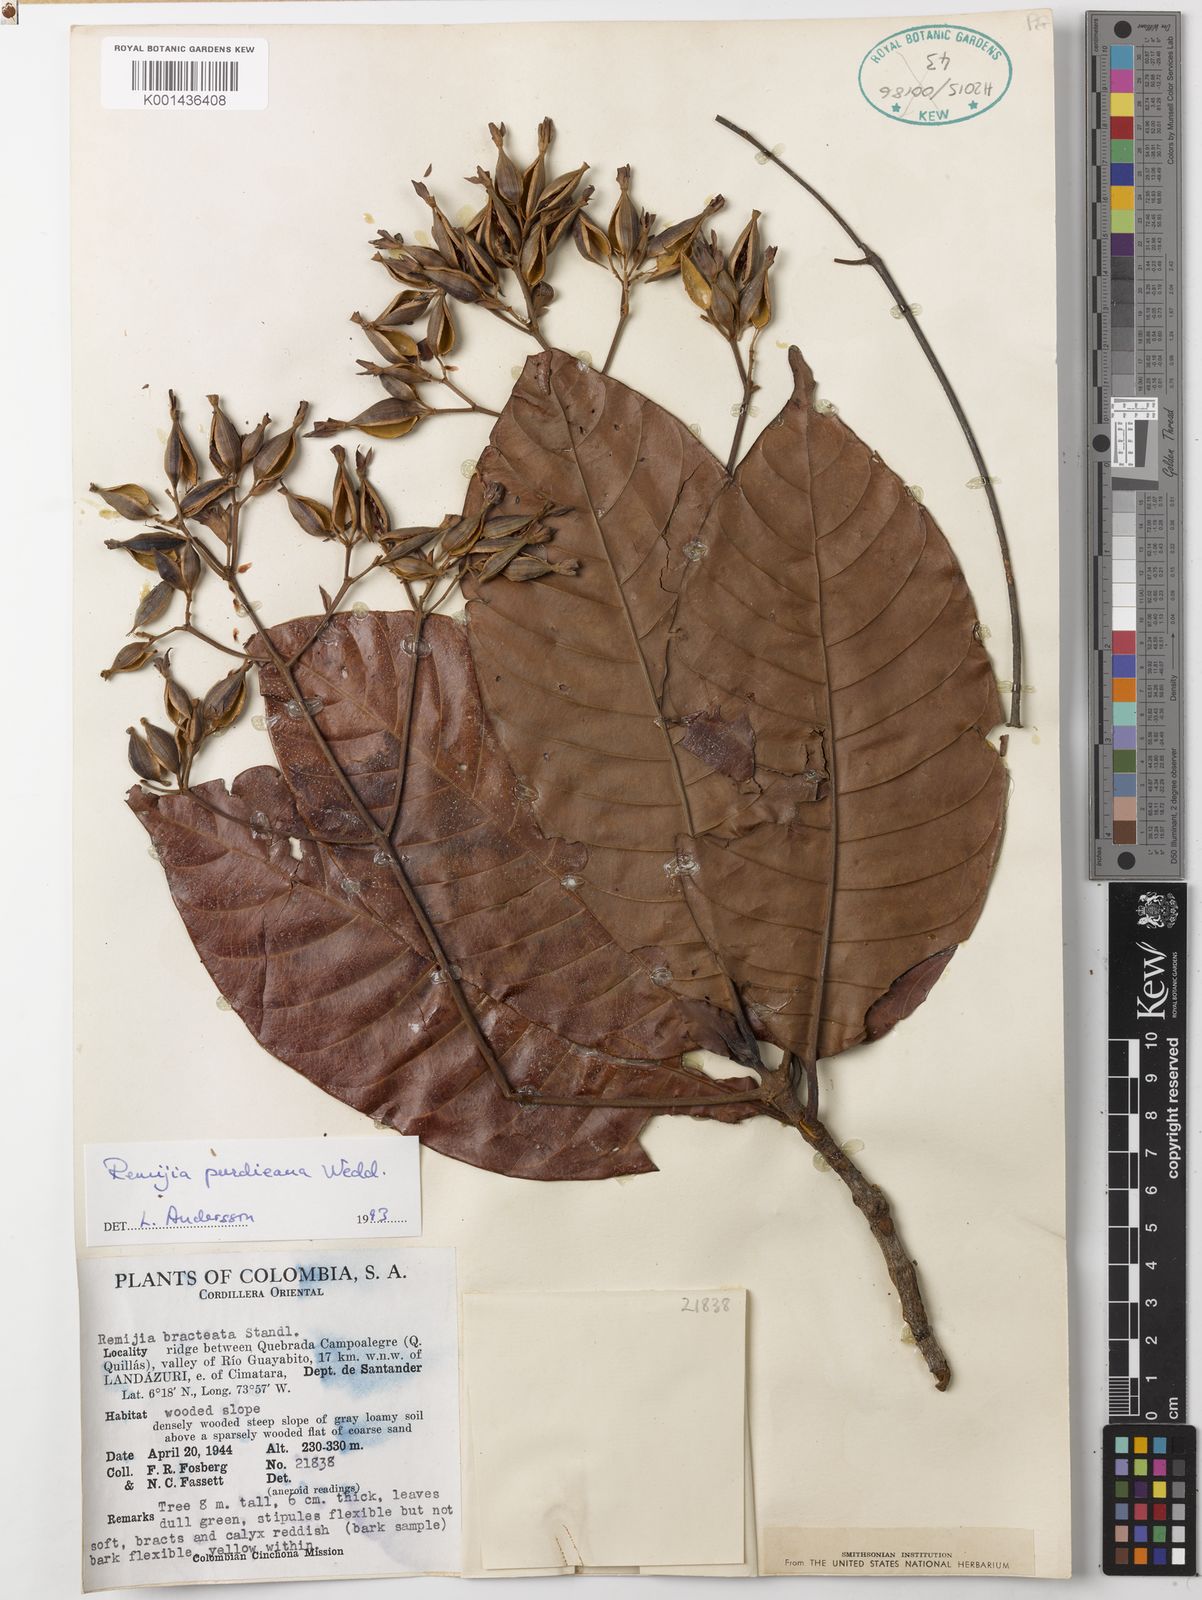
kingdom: Plantae
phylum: Tracheophyta
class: Magnoliopsida
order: Gentianales
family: Rubiaceae
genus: Ciliosemina
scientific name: Ciliosemina purdieana
